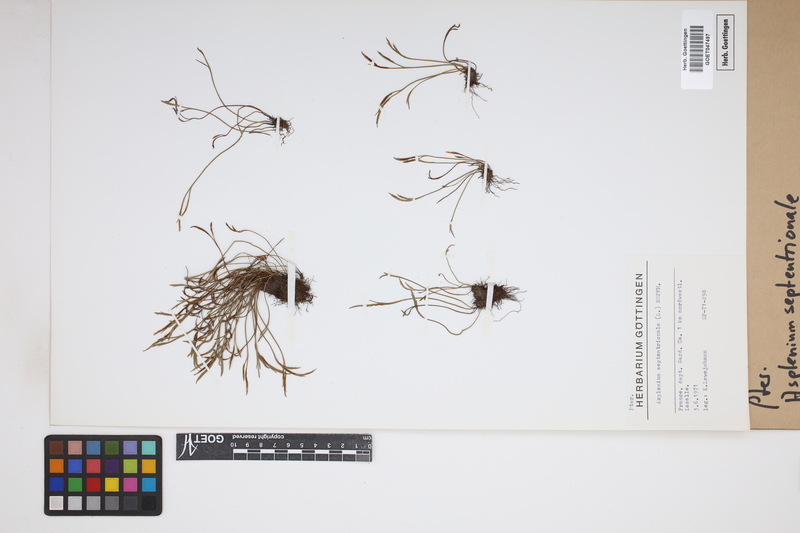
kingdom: Plantae
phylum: Tracheophyta
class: Polypodiopsida
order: Polypodiales
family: Aspleniaceae
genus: Asplenium
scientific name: Asplenium septentrionale
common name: Forked spleenwort
